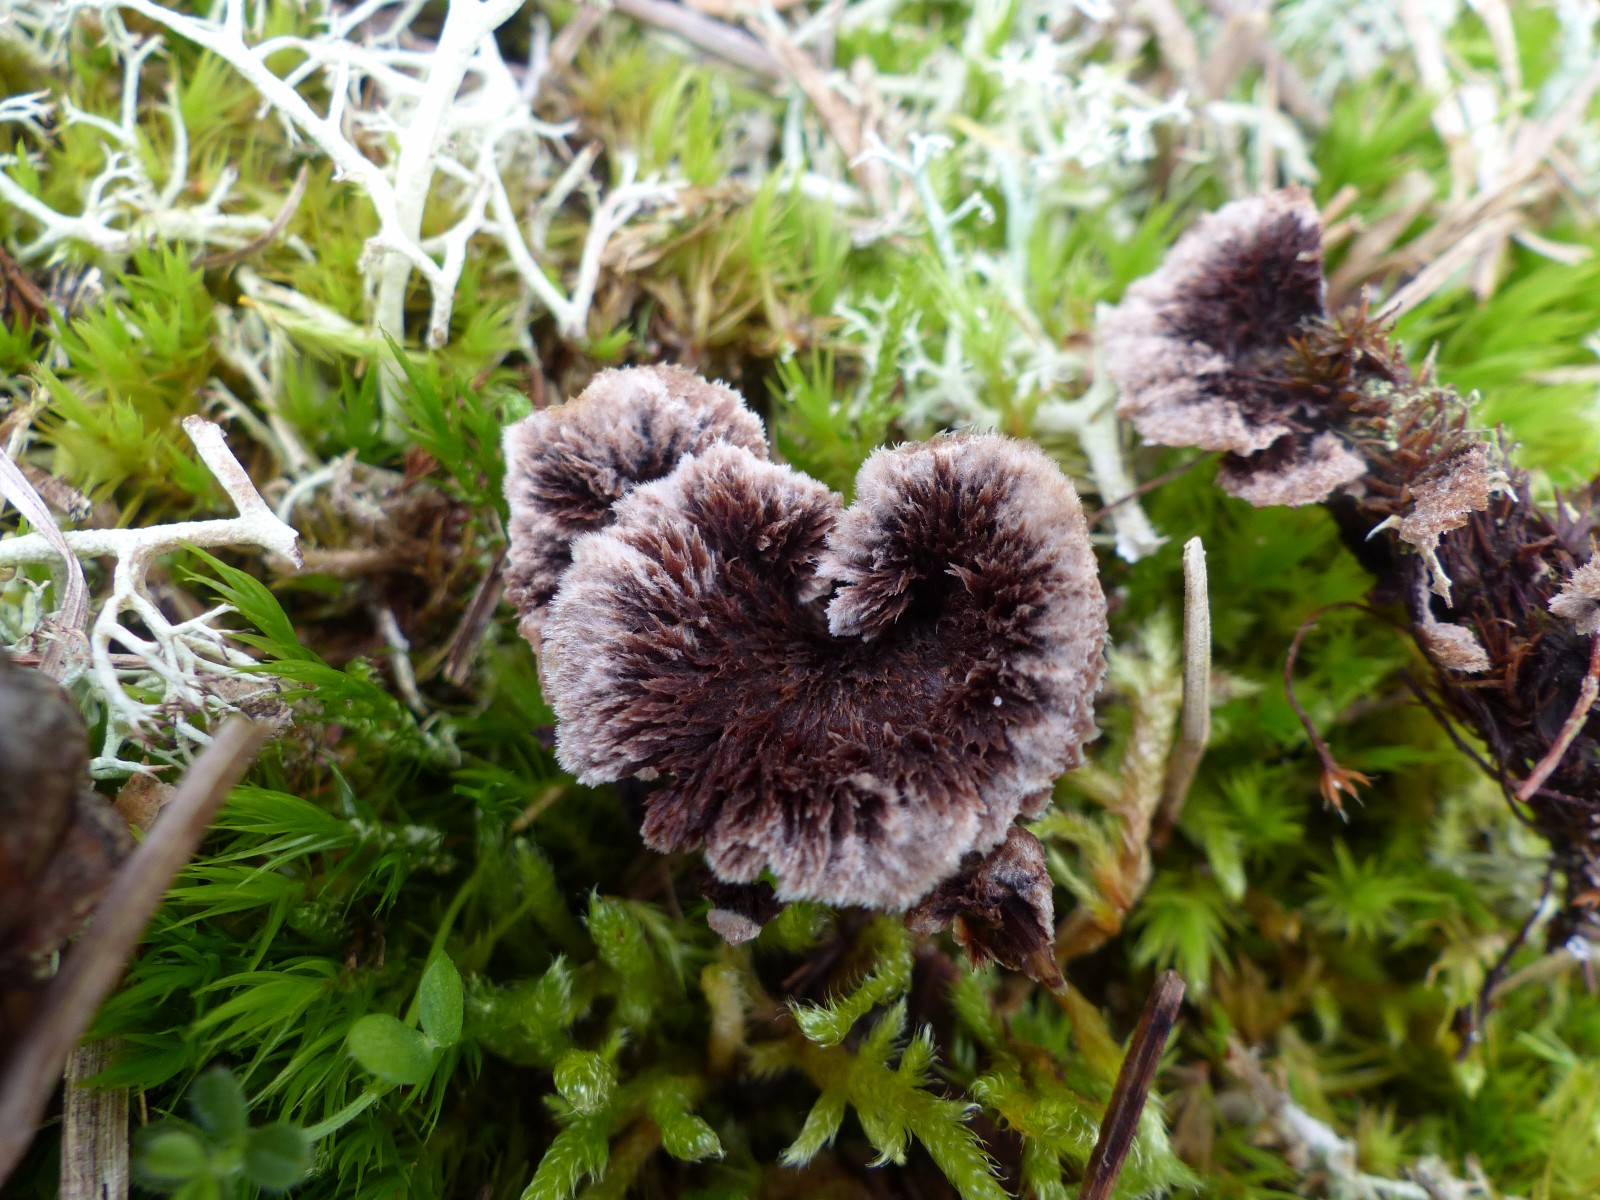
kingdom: Fungi
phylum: Basidiomycota
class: Agaricomycetes
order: Thelephorales
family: Thelephoraceae
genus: Thelephora
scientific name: Thelephora terrestris
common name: fliget frynsesvamp
